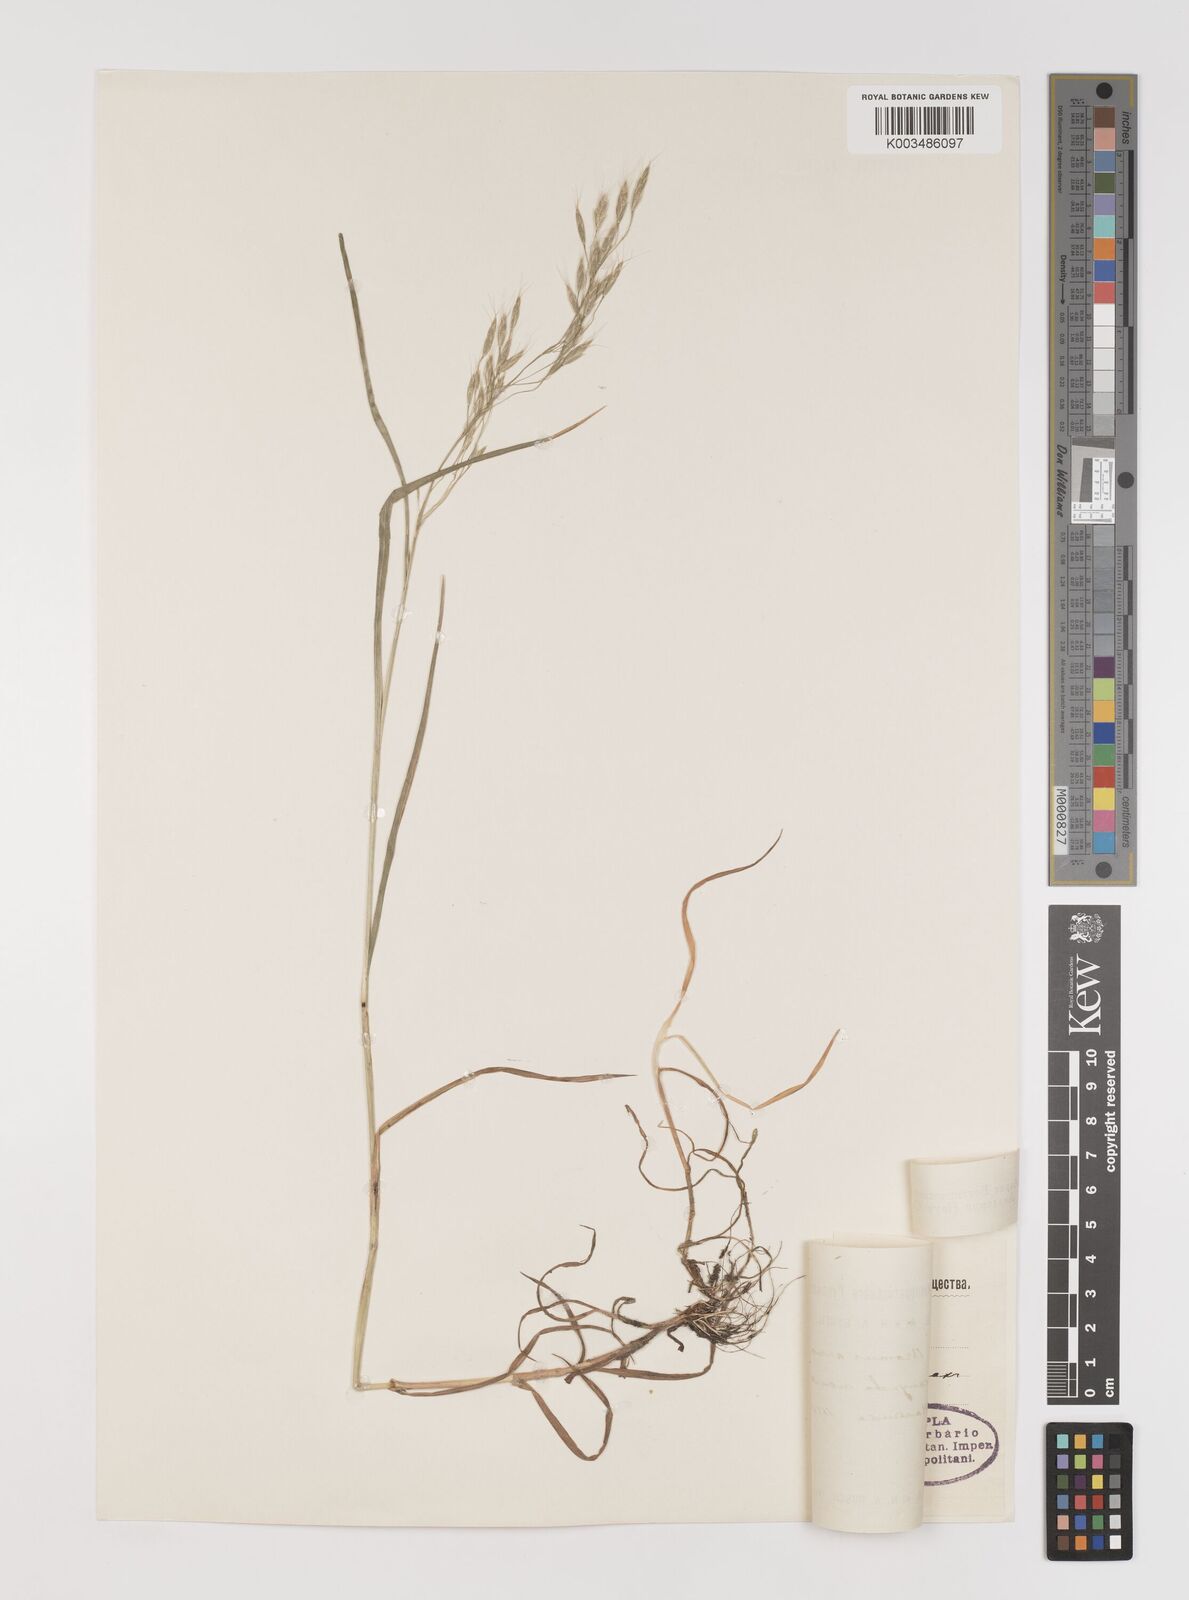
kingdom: Plantae
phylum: Tracheophyta
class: Liliopsida
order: Poales
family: Poaceae
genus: Bromus
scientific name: Bromus arvensis
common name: Field brome
